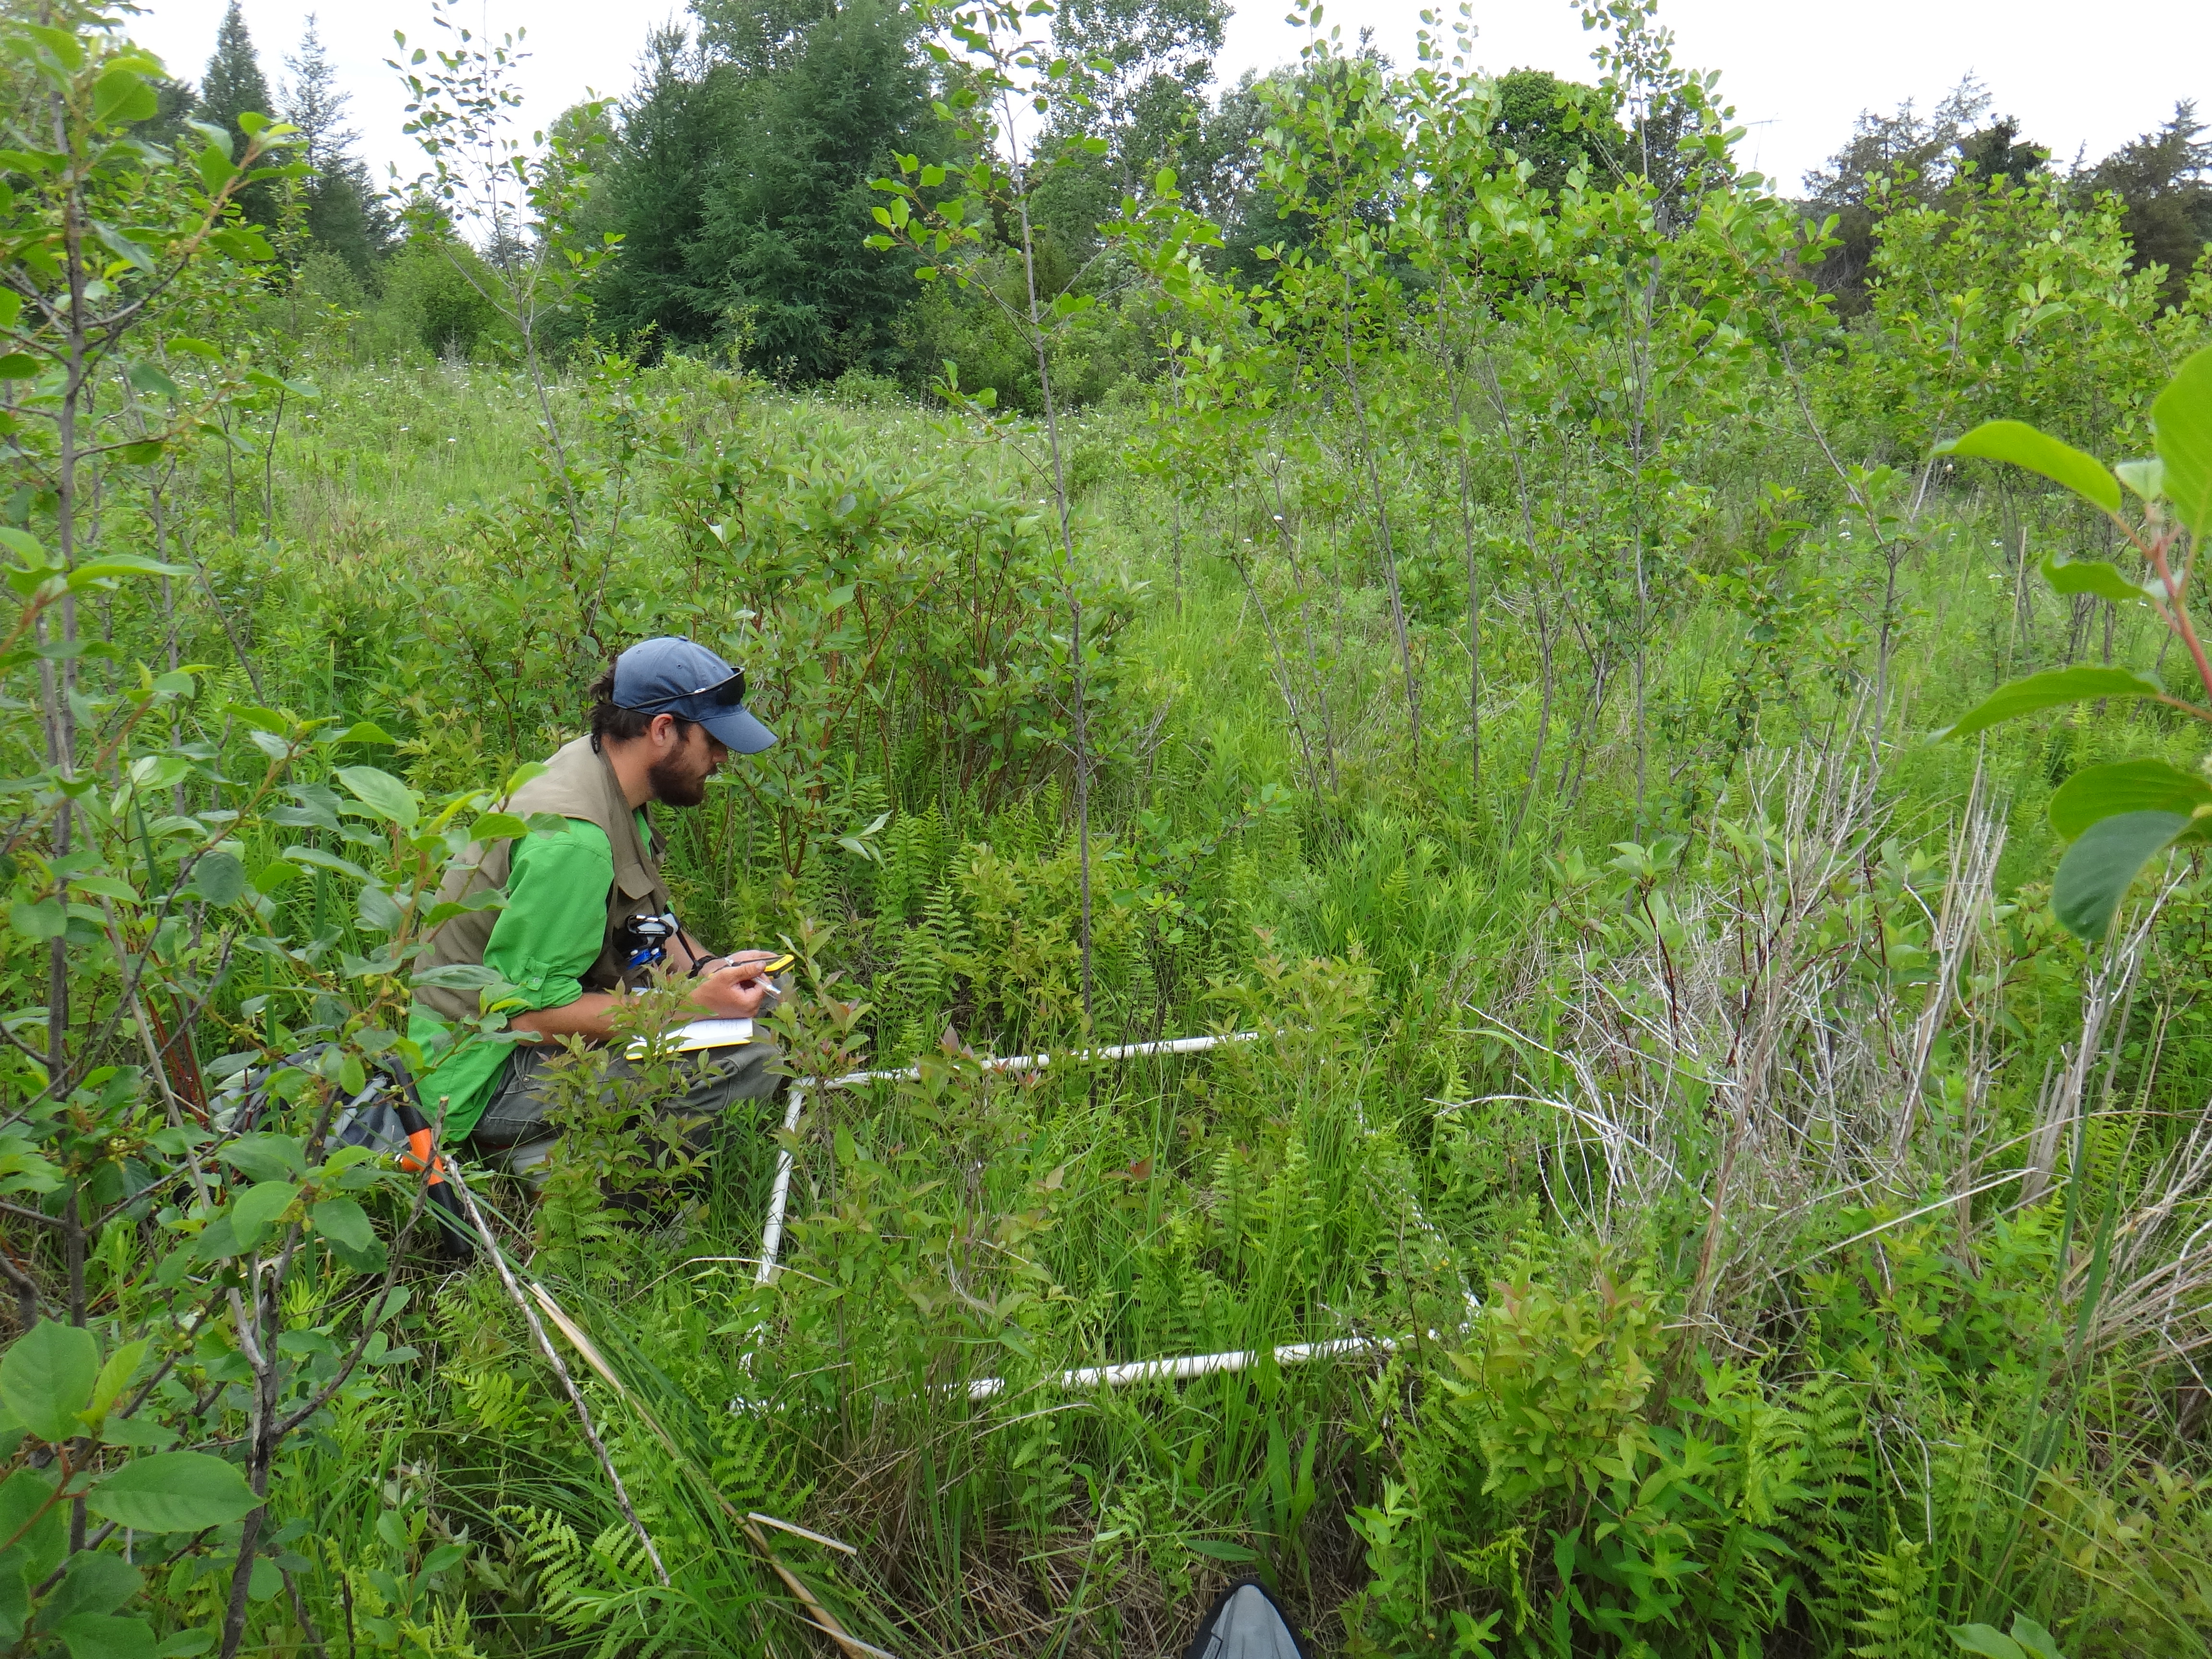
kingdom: Plantae
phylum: Tracheophyta
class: Liliopsida
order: Poales
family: Poaceae
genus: Glyceria
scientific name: Glyceria striata
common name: Fowl manna grass
